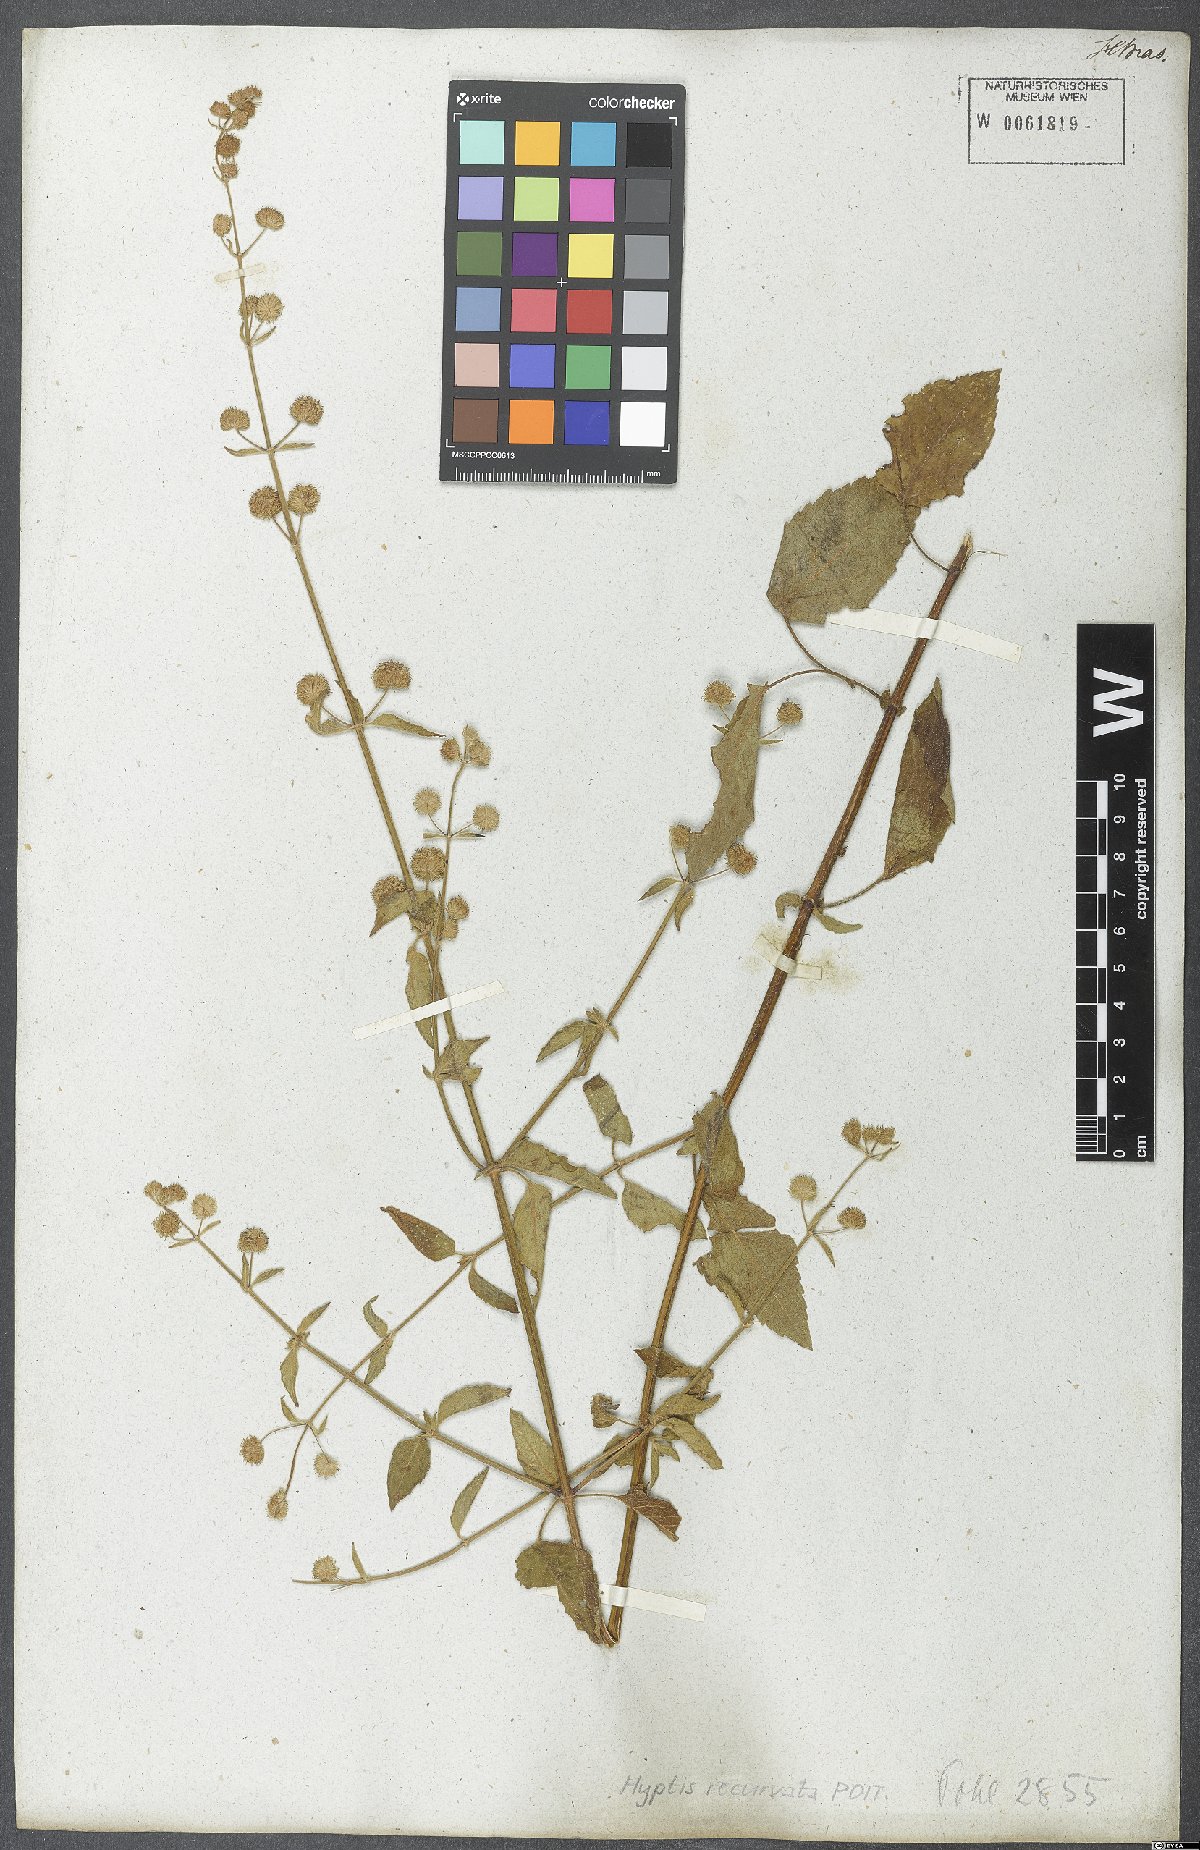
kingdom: Plantae
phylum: Tracheophyta
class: Magnoliopsida
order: Lamiales
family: Lamiaceae
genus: Hyptis
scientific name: Hyptis recurvata
